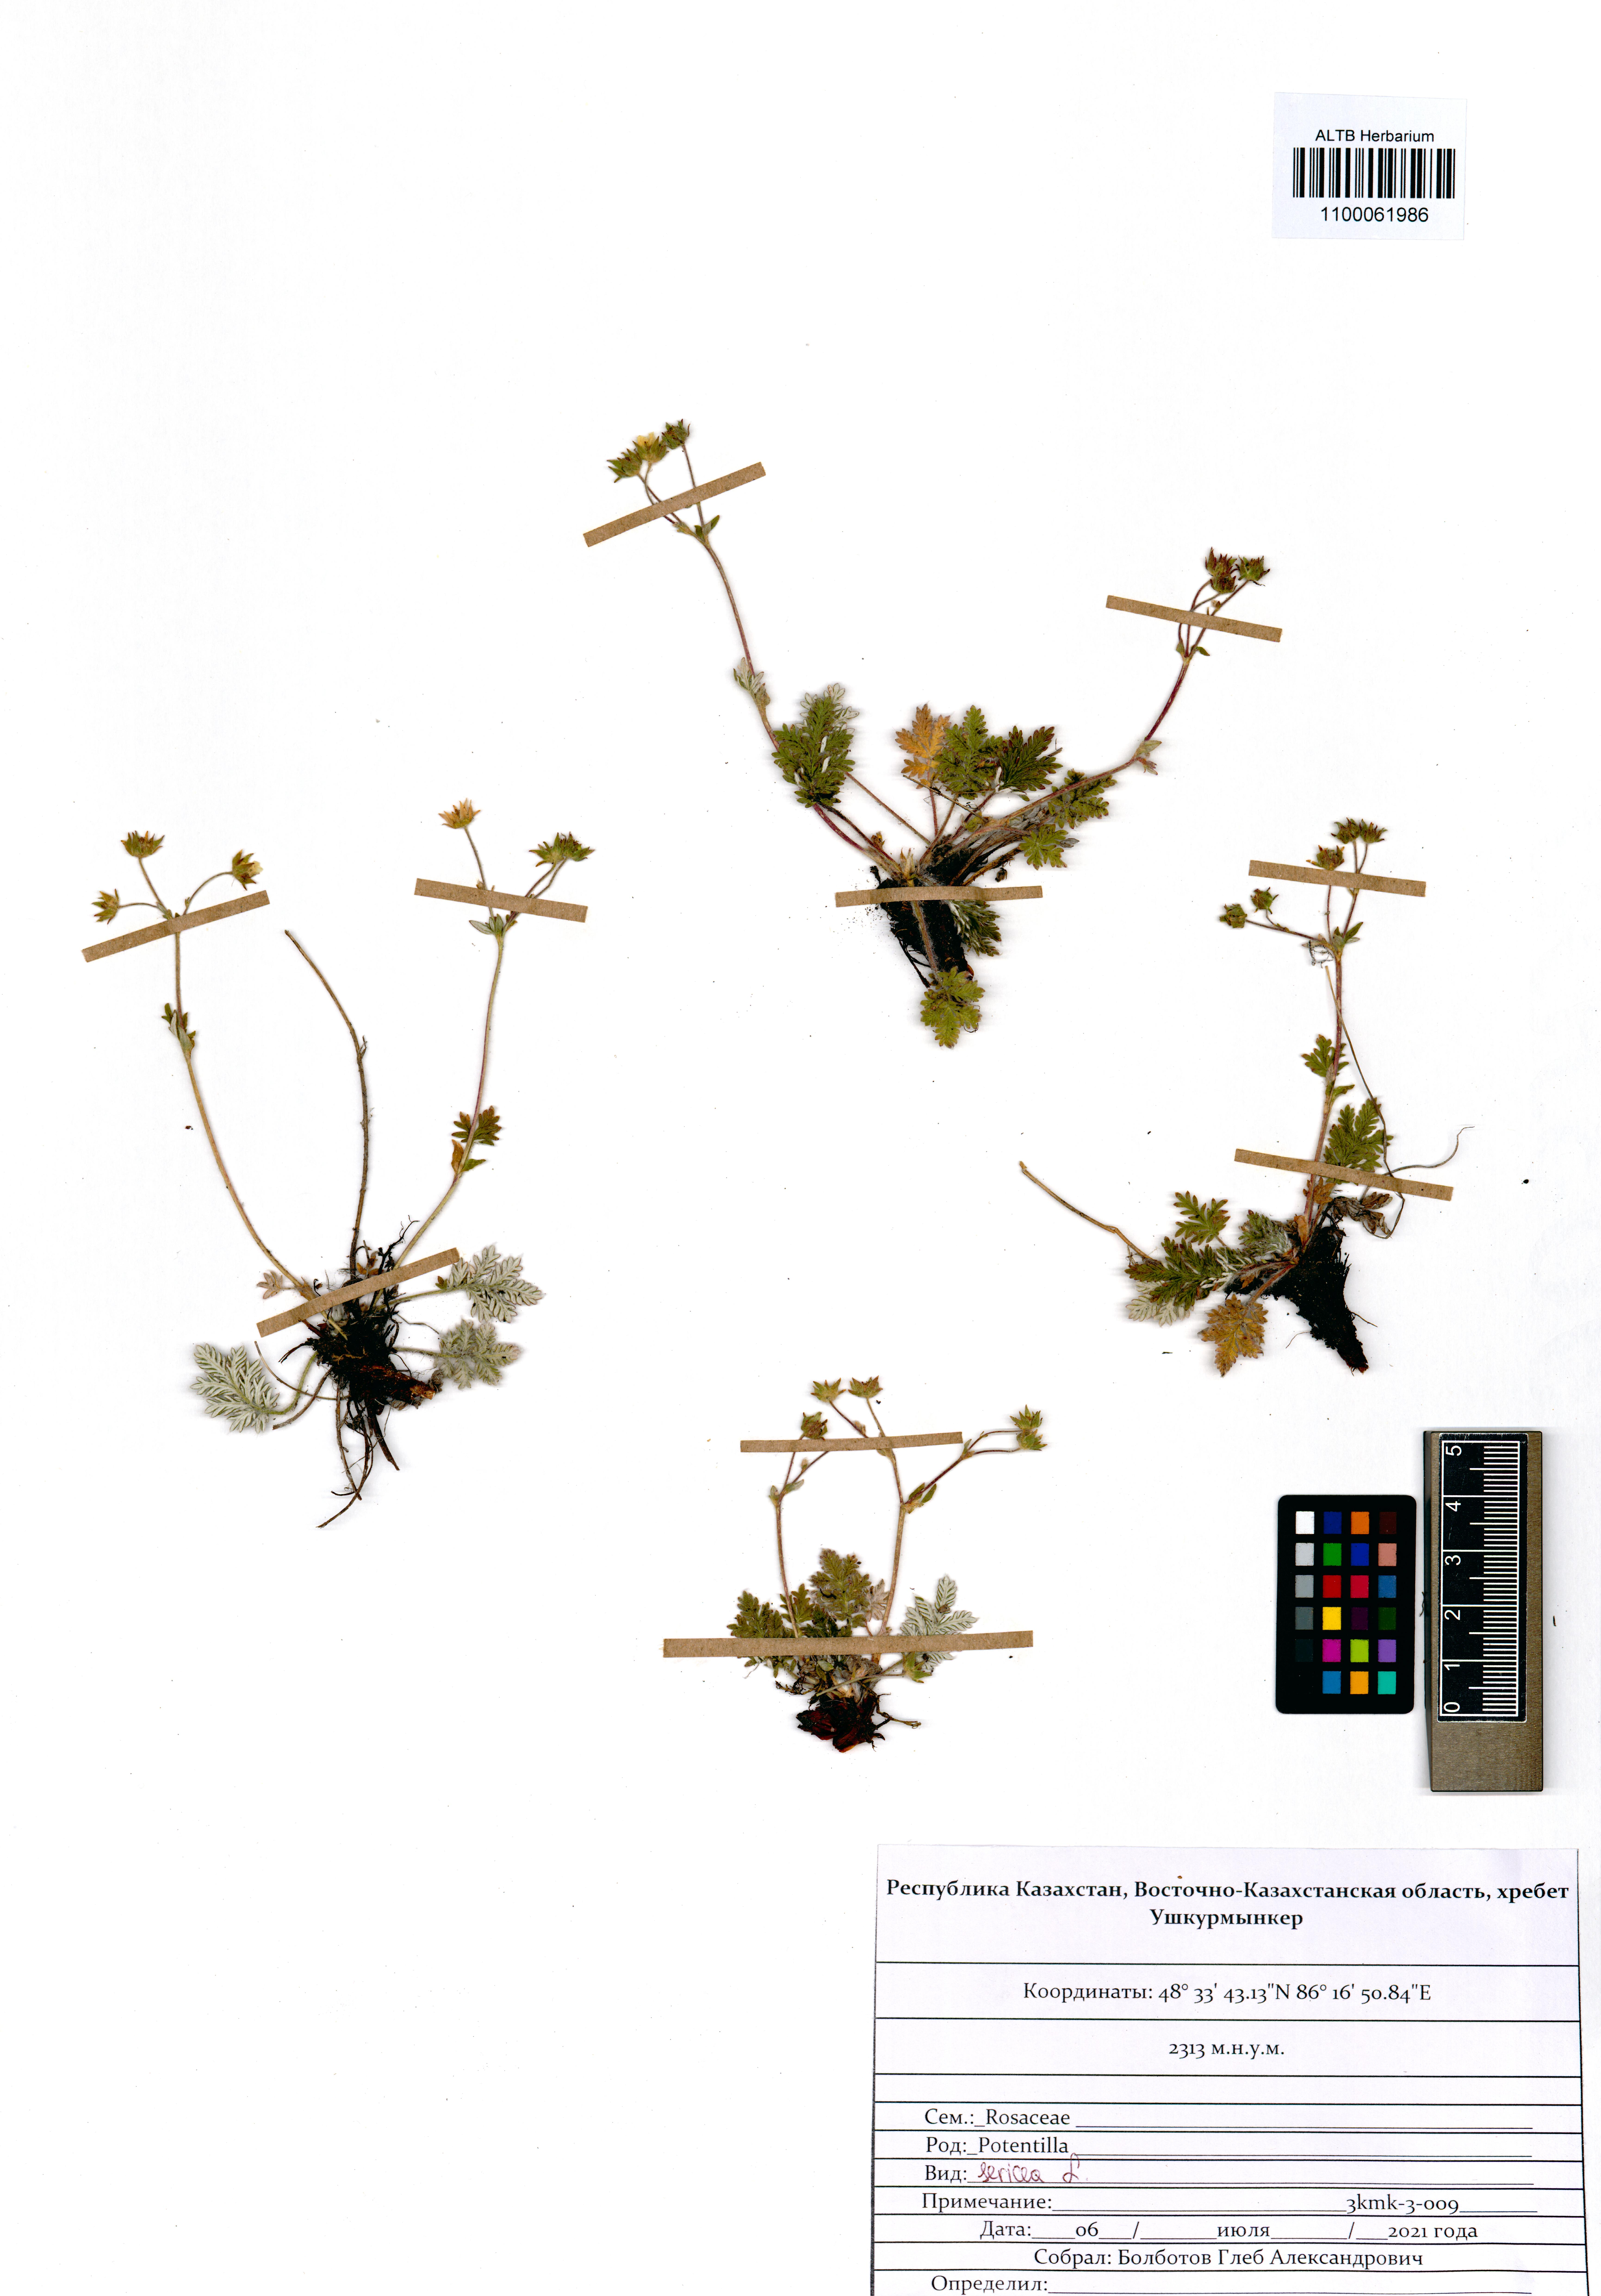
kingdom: Plantae
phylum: Tracheophyta
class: Magnoliopsida
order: Rosales
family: Rosaceae
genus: Potentilla
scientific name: Potentilla sericea
